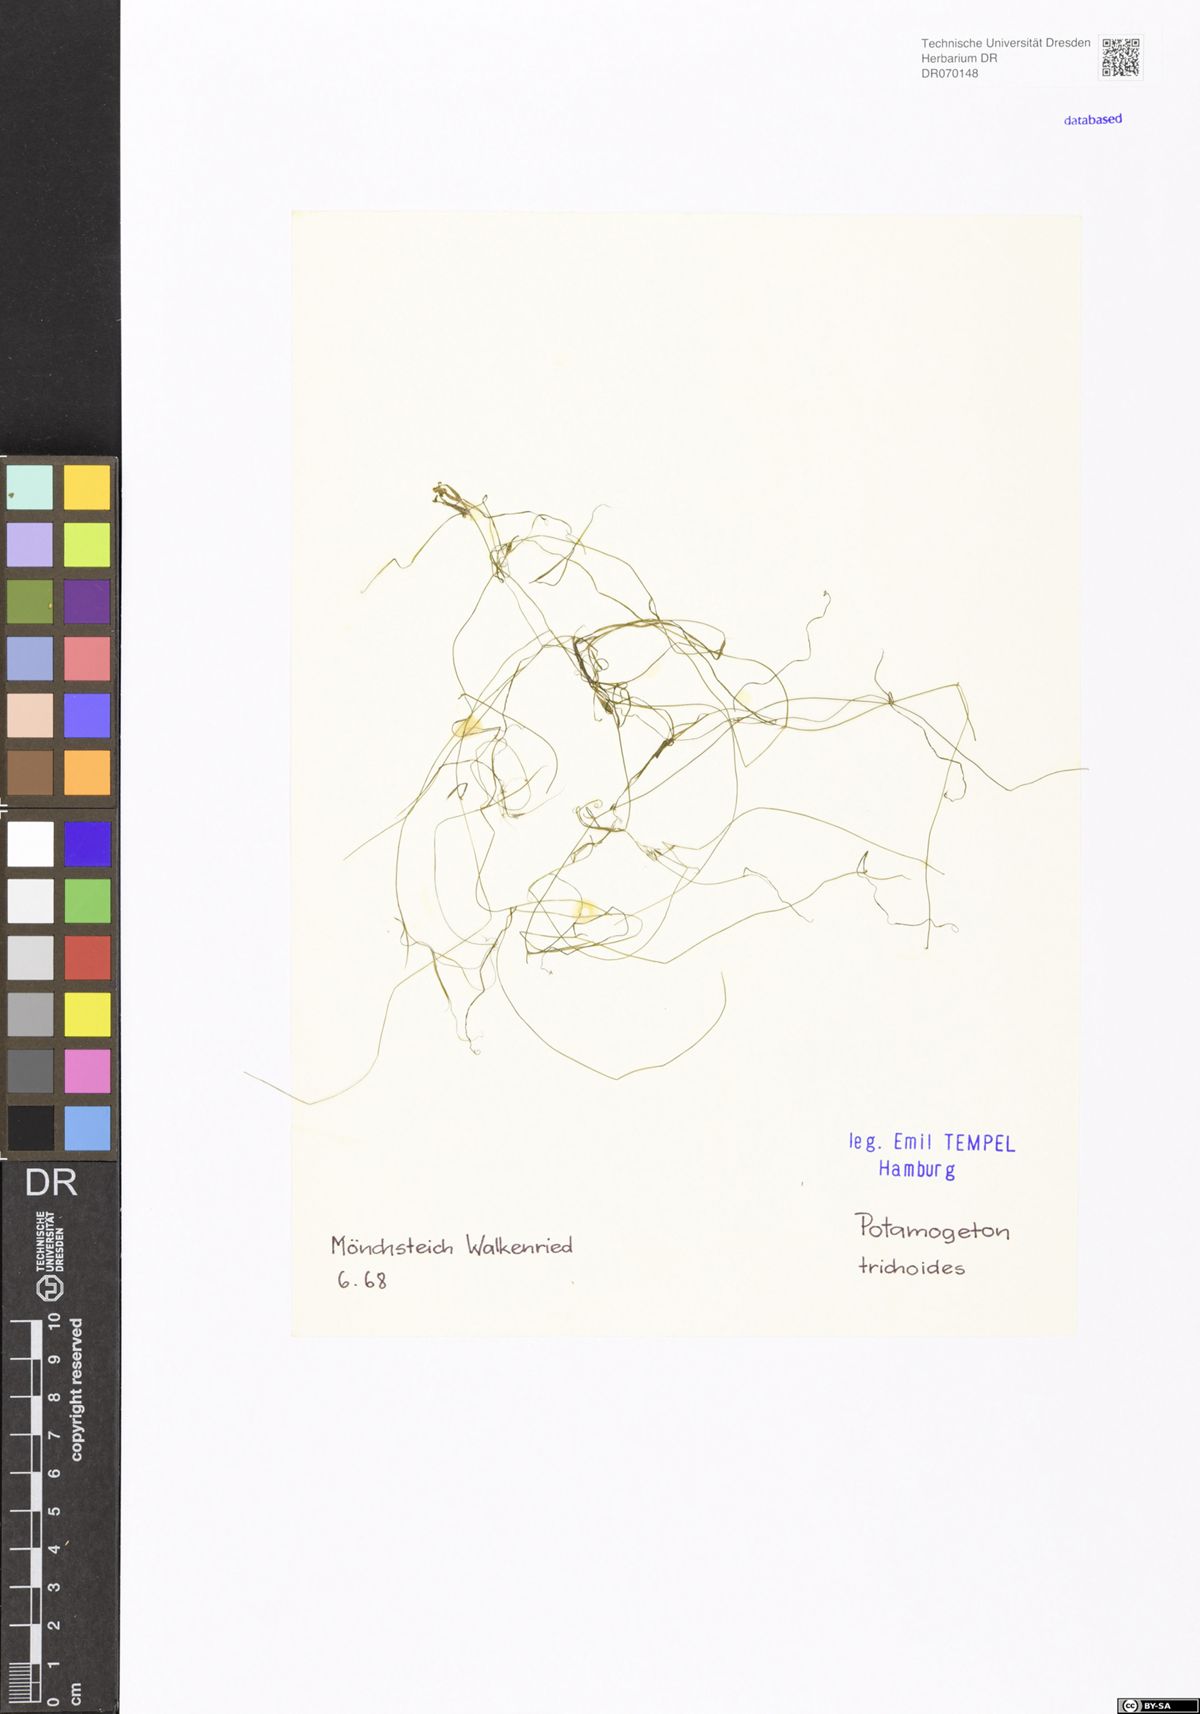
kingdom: Plantae
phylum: Tracheophyta
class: Liliopsida
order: Alismatales
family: Potamogetonaceae
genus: Potamogeton
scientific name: Potamogeton trichoides
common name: Hairlike pondweed
